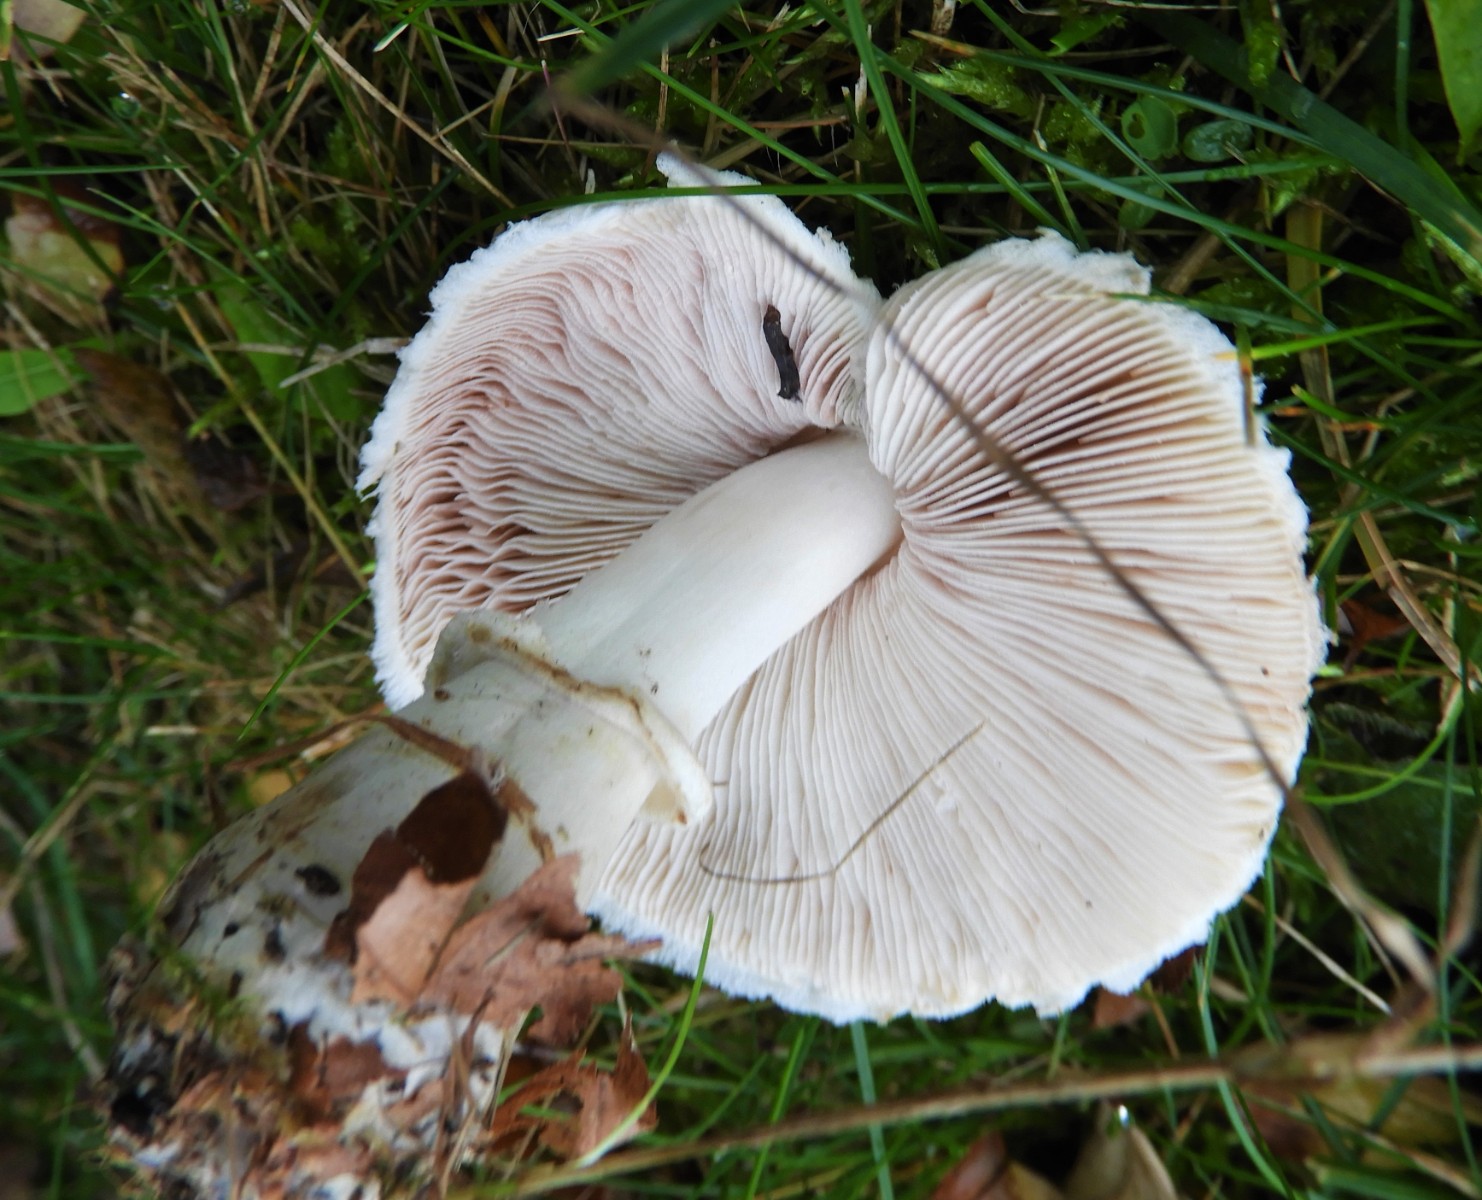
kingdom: Fungi
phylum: Basidiomycota
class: Agaricomycetes
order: Agaricales
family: Agaricaceae
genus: Leucoagaricus
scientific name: Leucoagaricus leucothites
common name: rosabladet silkehat
